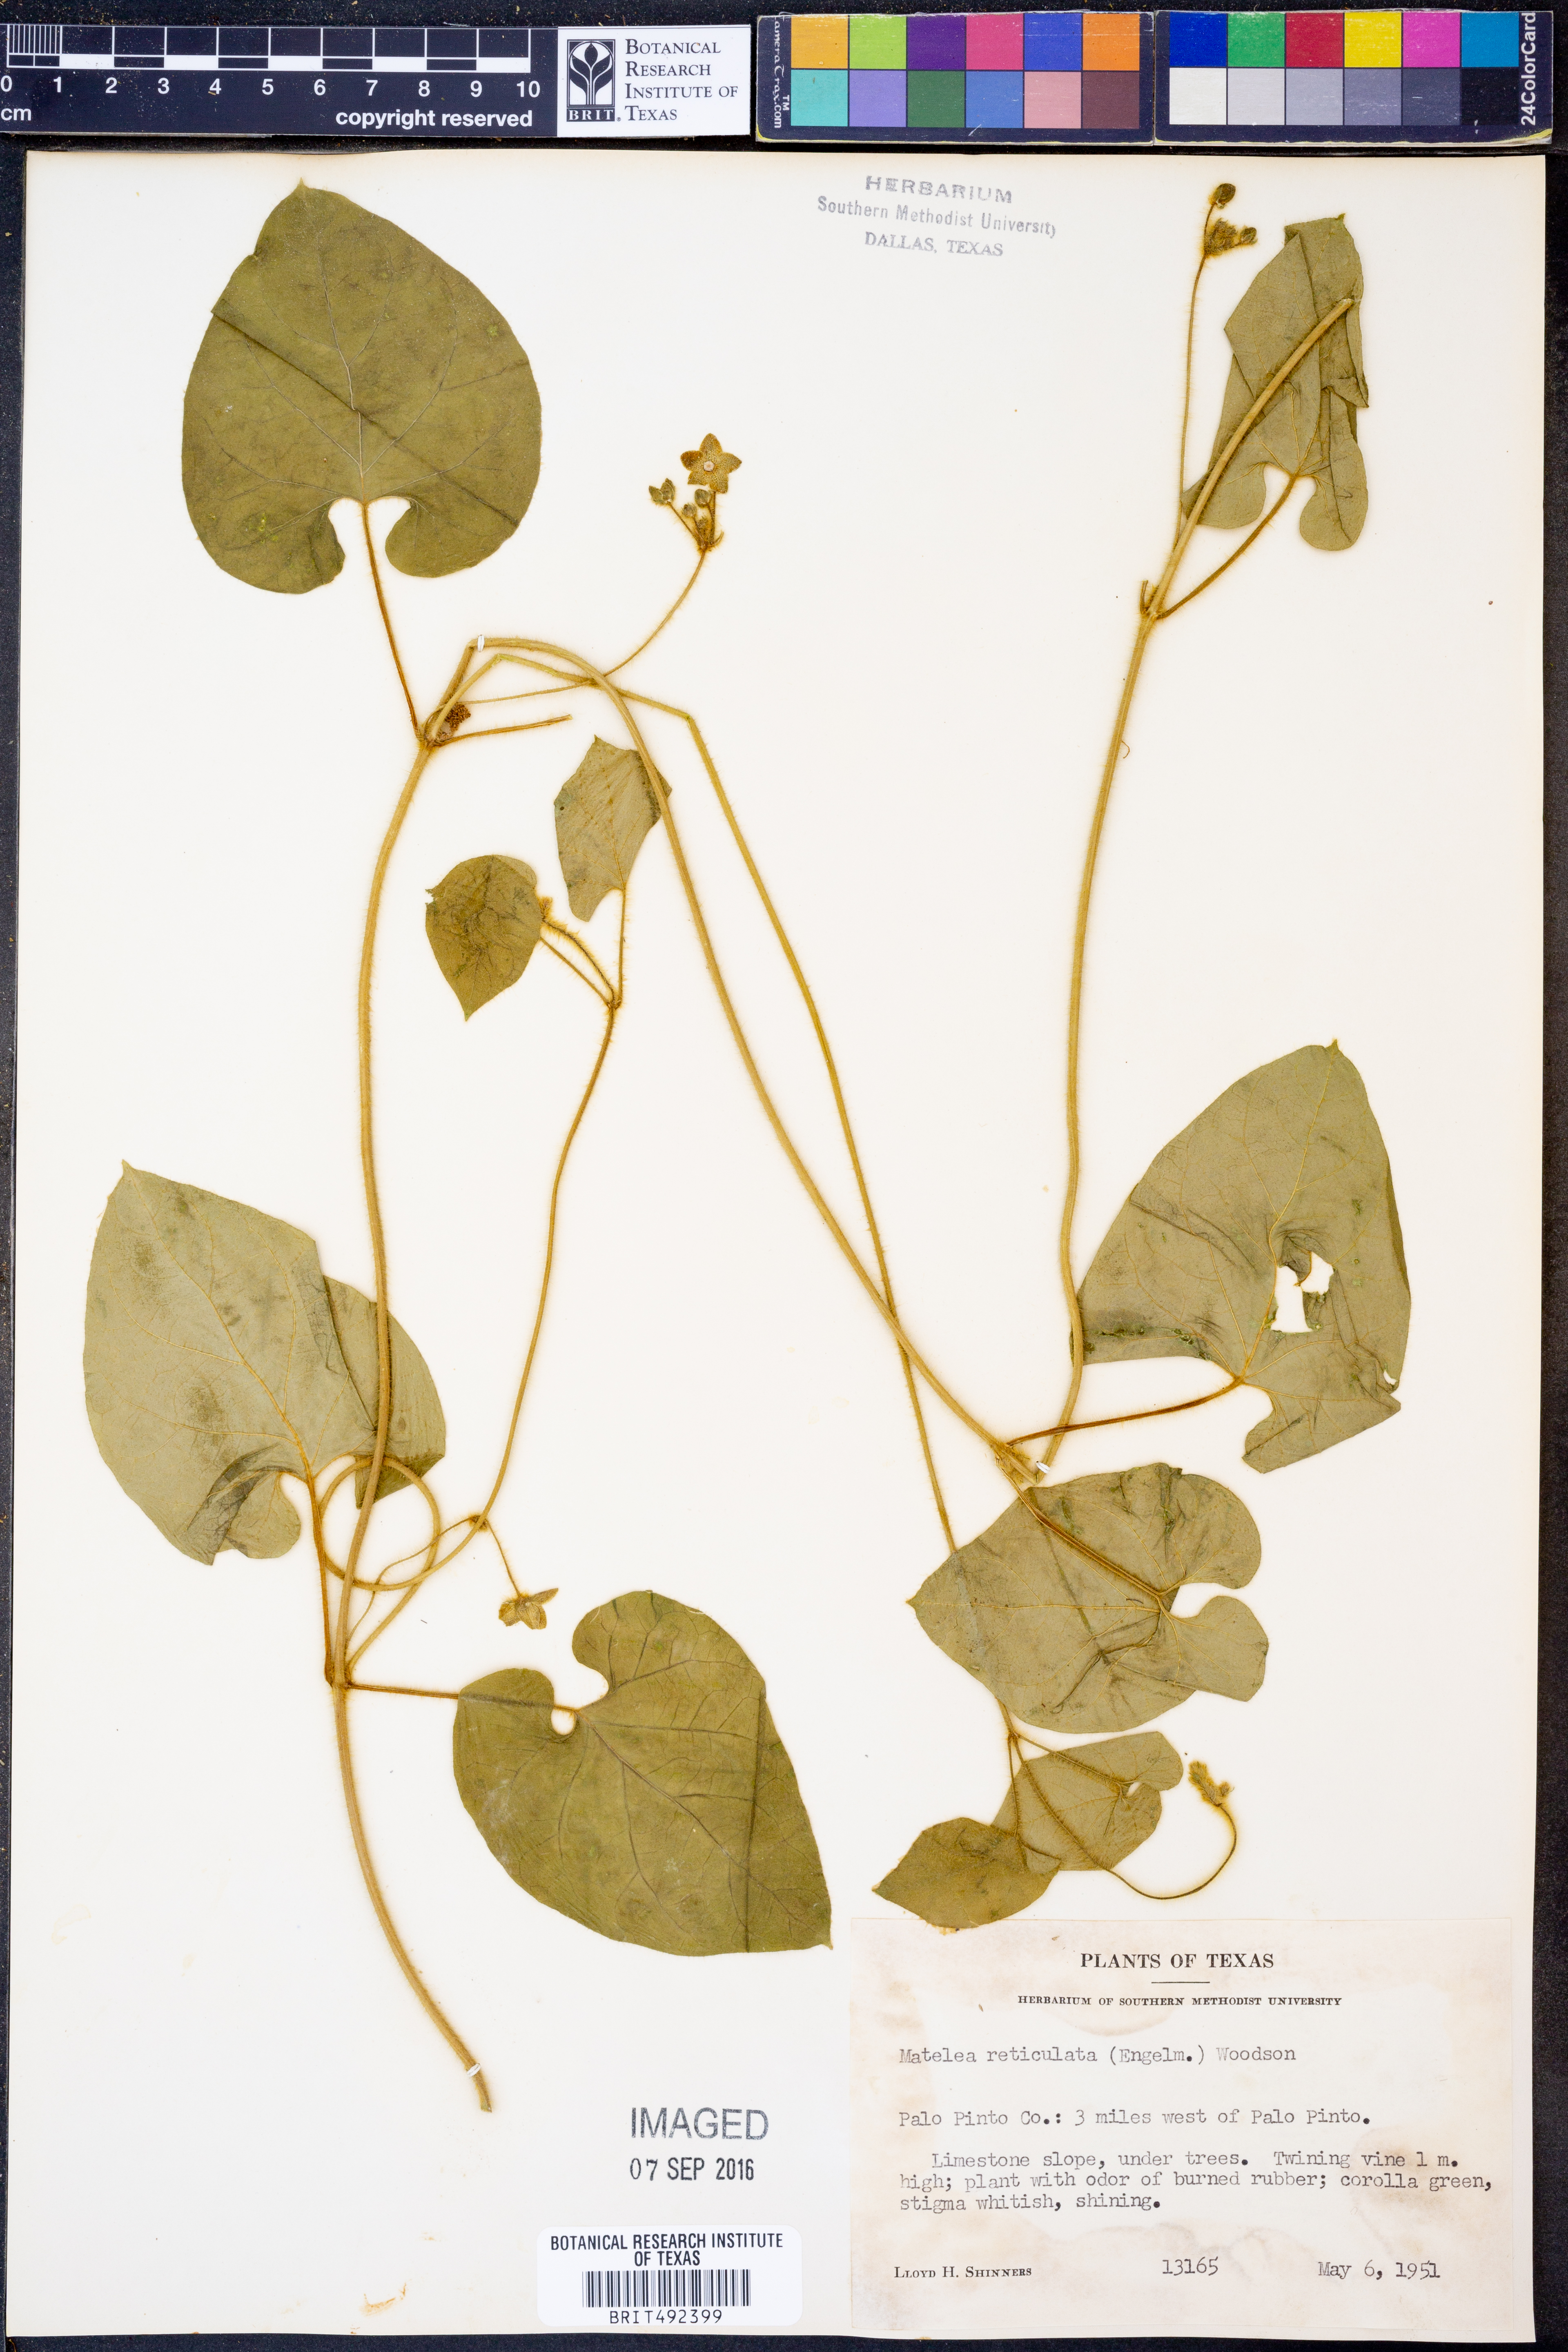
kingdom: Plantae
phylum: Tracheophyta
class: Magnoliopsida
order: Gentianales
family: Apocynaceae
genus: Dictyanthus
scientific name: Dictyanthus reticulatus
